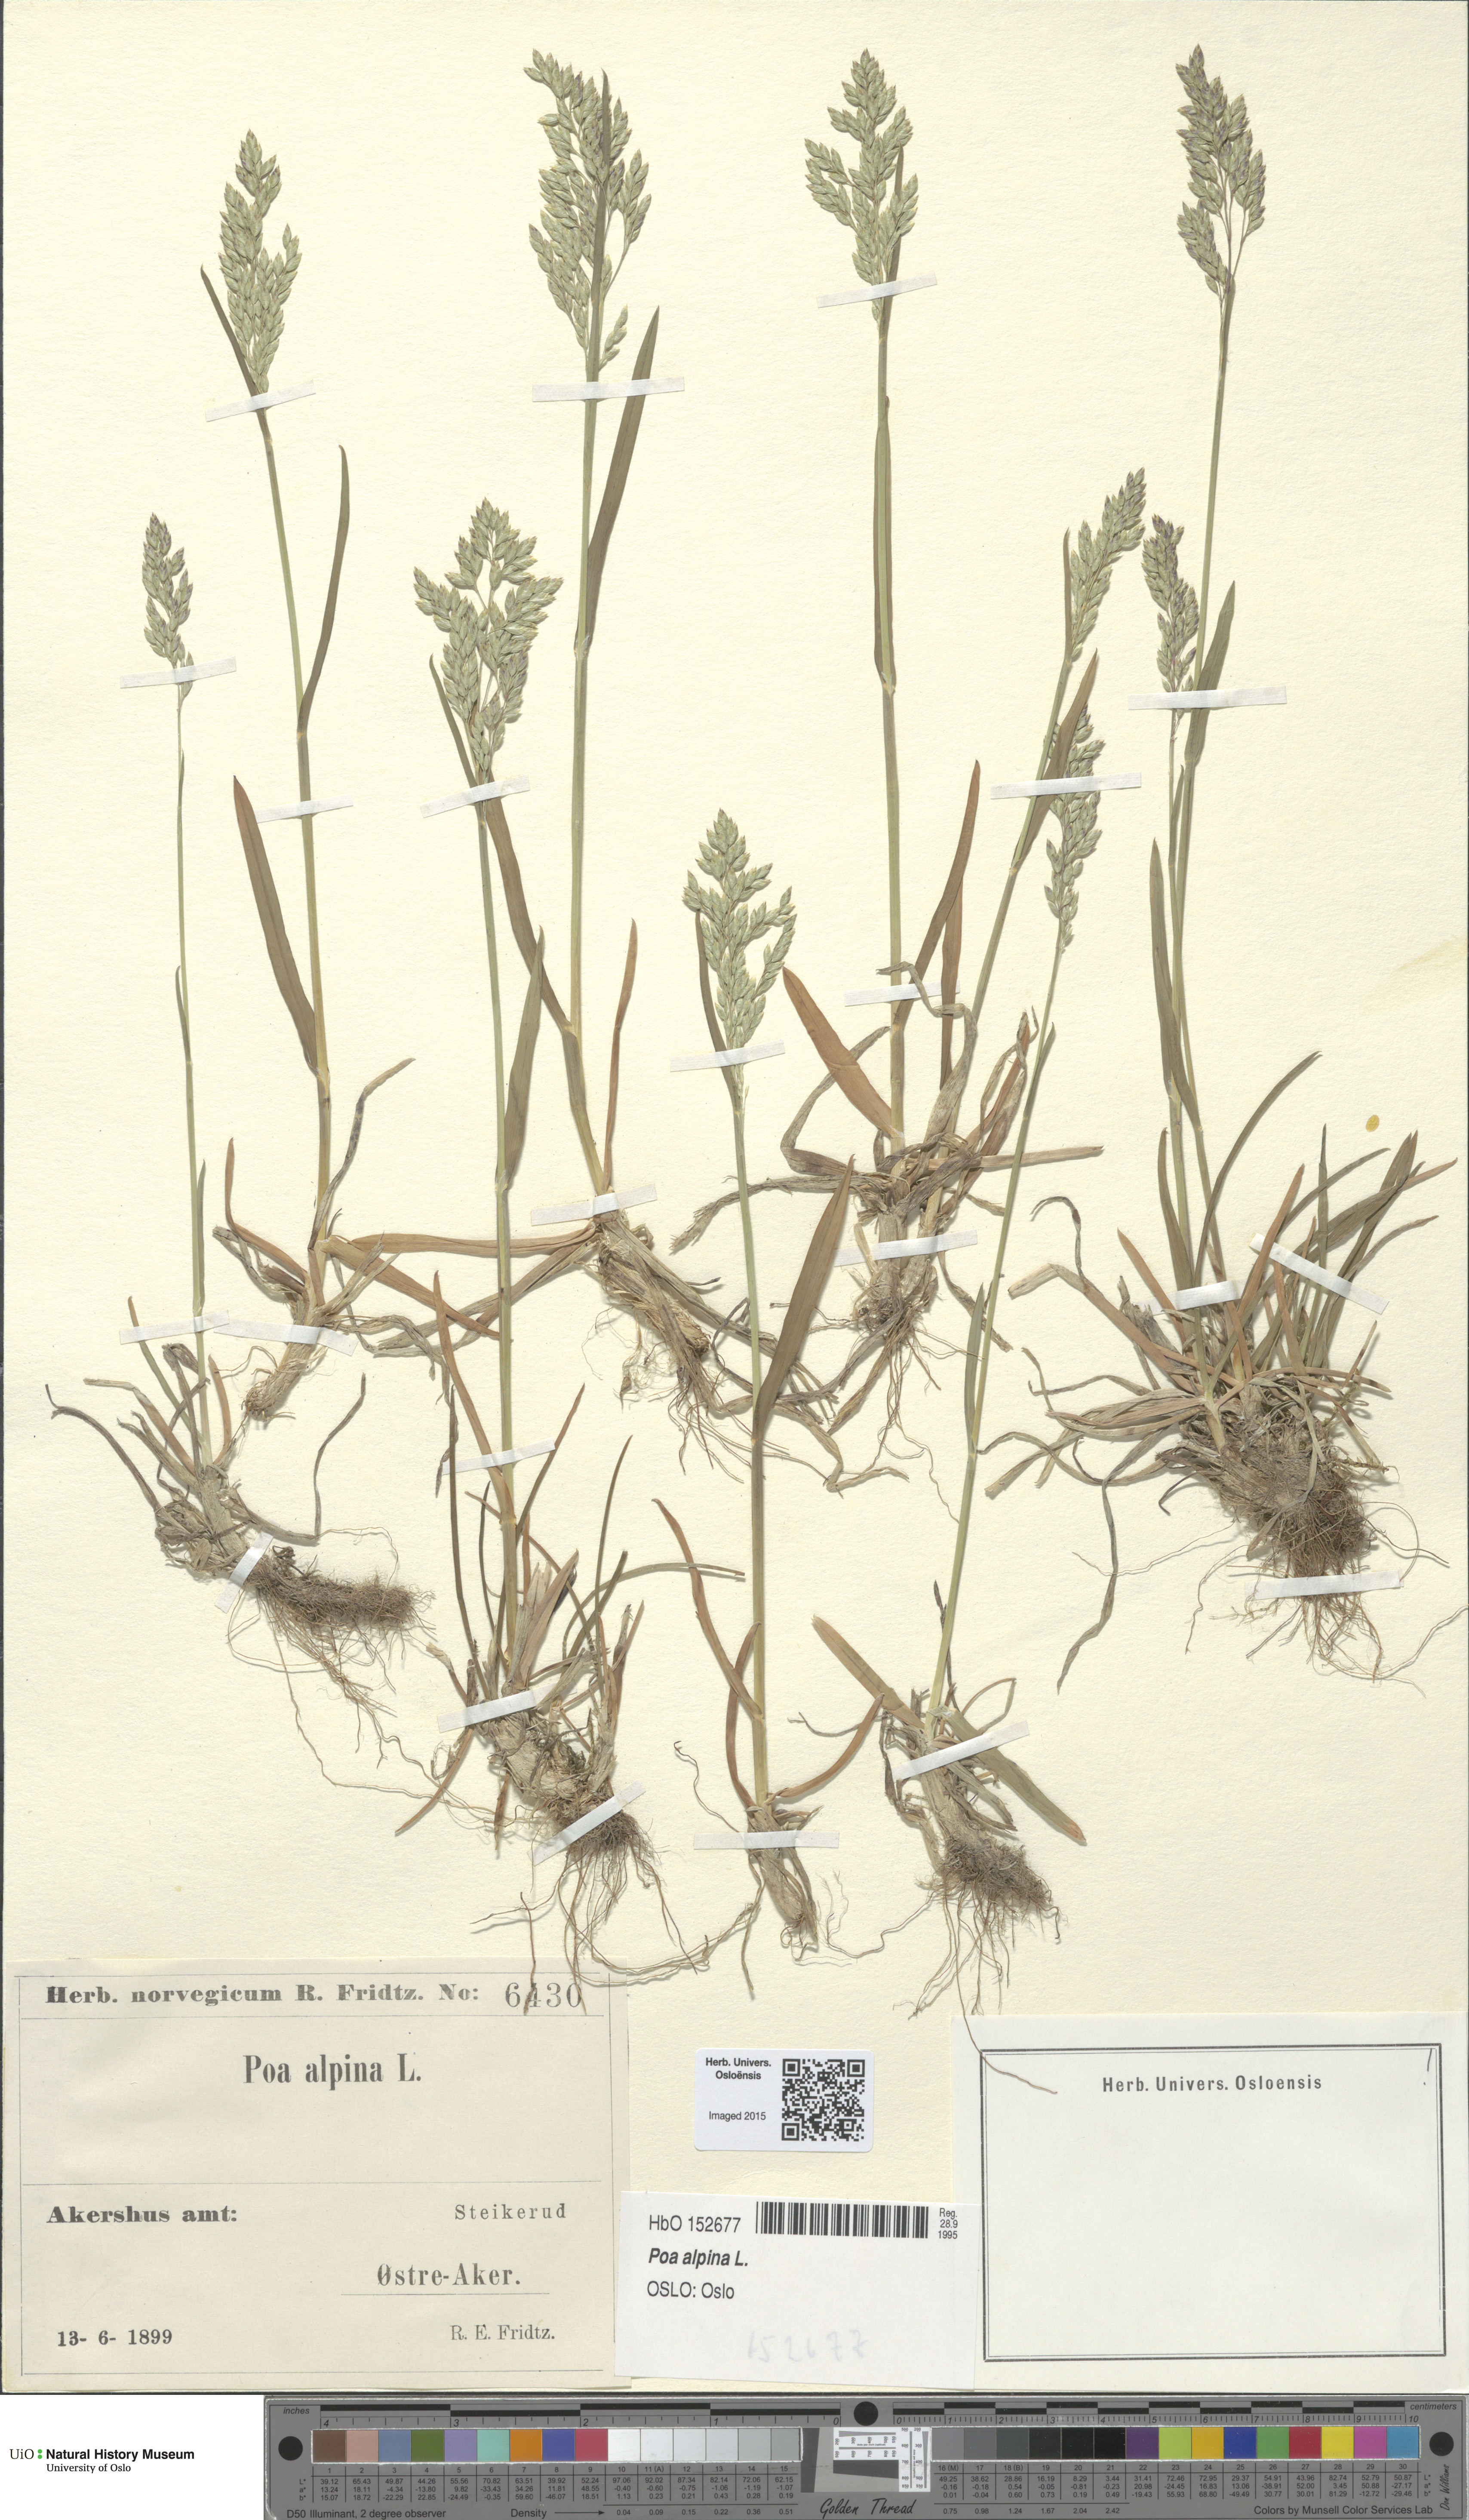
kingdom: Plantae
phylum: Tracheophyta
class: Liliopsida
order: Poales
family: Poaceae
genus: Poa
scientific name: Poa alpina
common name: Alpine bluegrass
